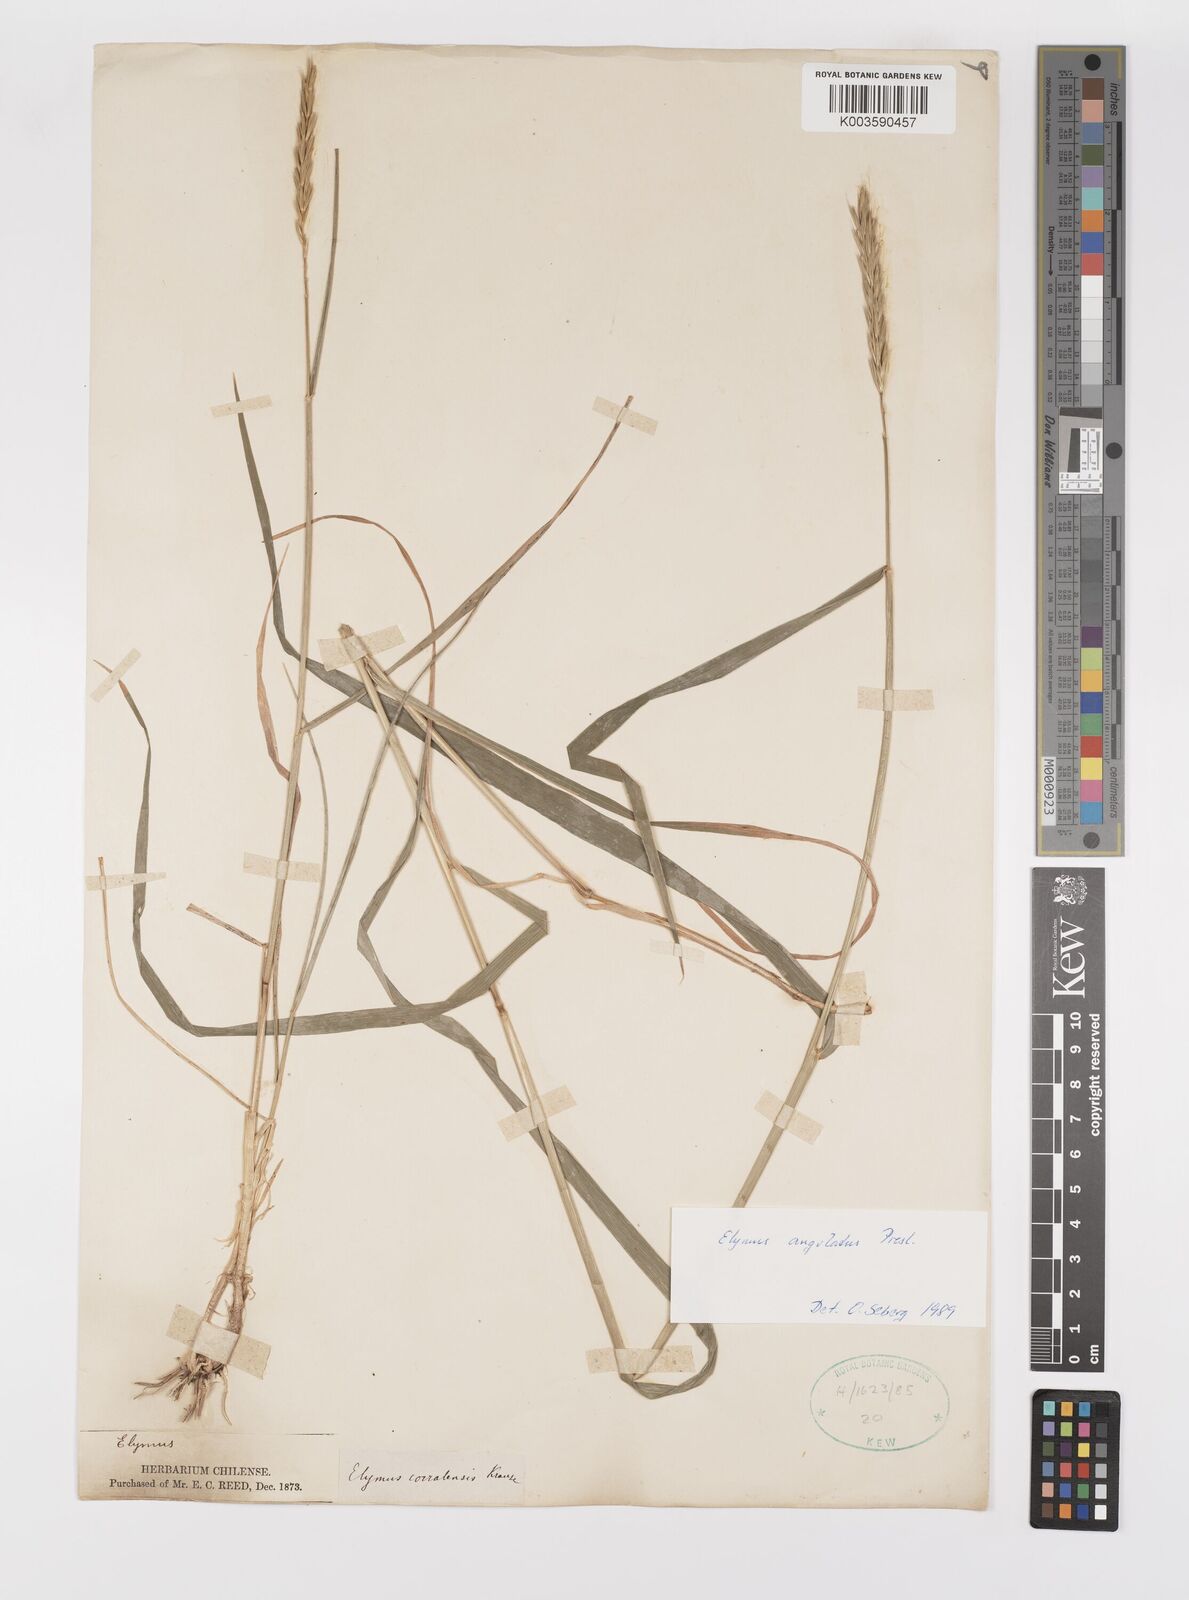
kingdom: Plantae
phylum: Tracheophyta
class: Liliopsida
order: Poales
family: Poaceae
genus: Elymus
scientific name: Elymus angulatus
